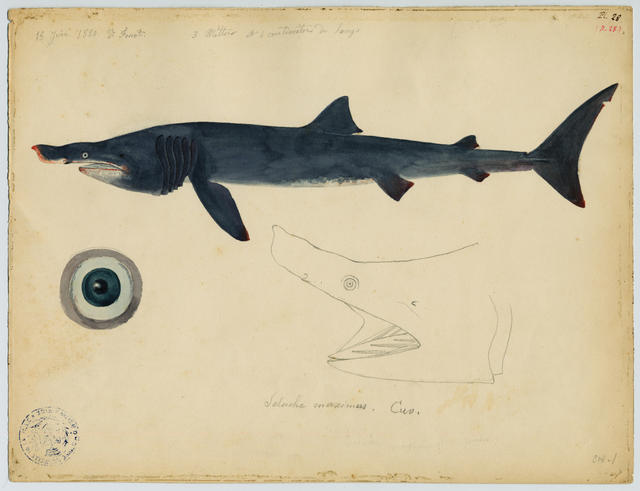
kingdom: Animalia
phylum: Chordata
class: Elasmobranchii
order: Lamniformes
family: Cetorhinidae
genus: Cetorhinus
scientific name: Cetorhinus maximus
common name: Basking shark
